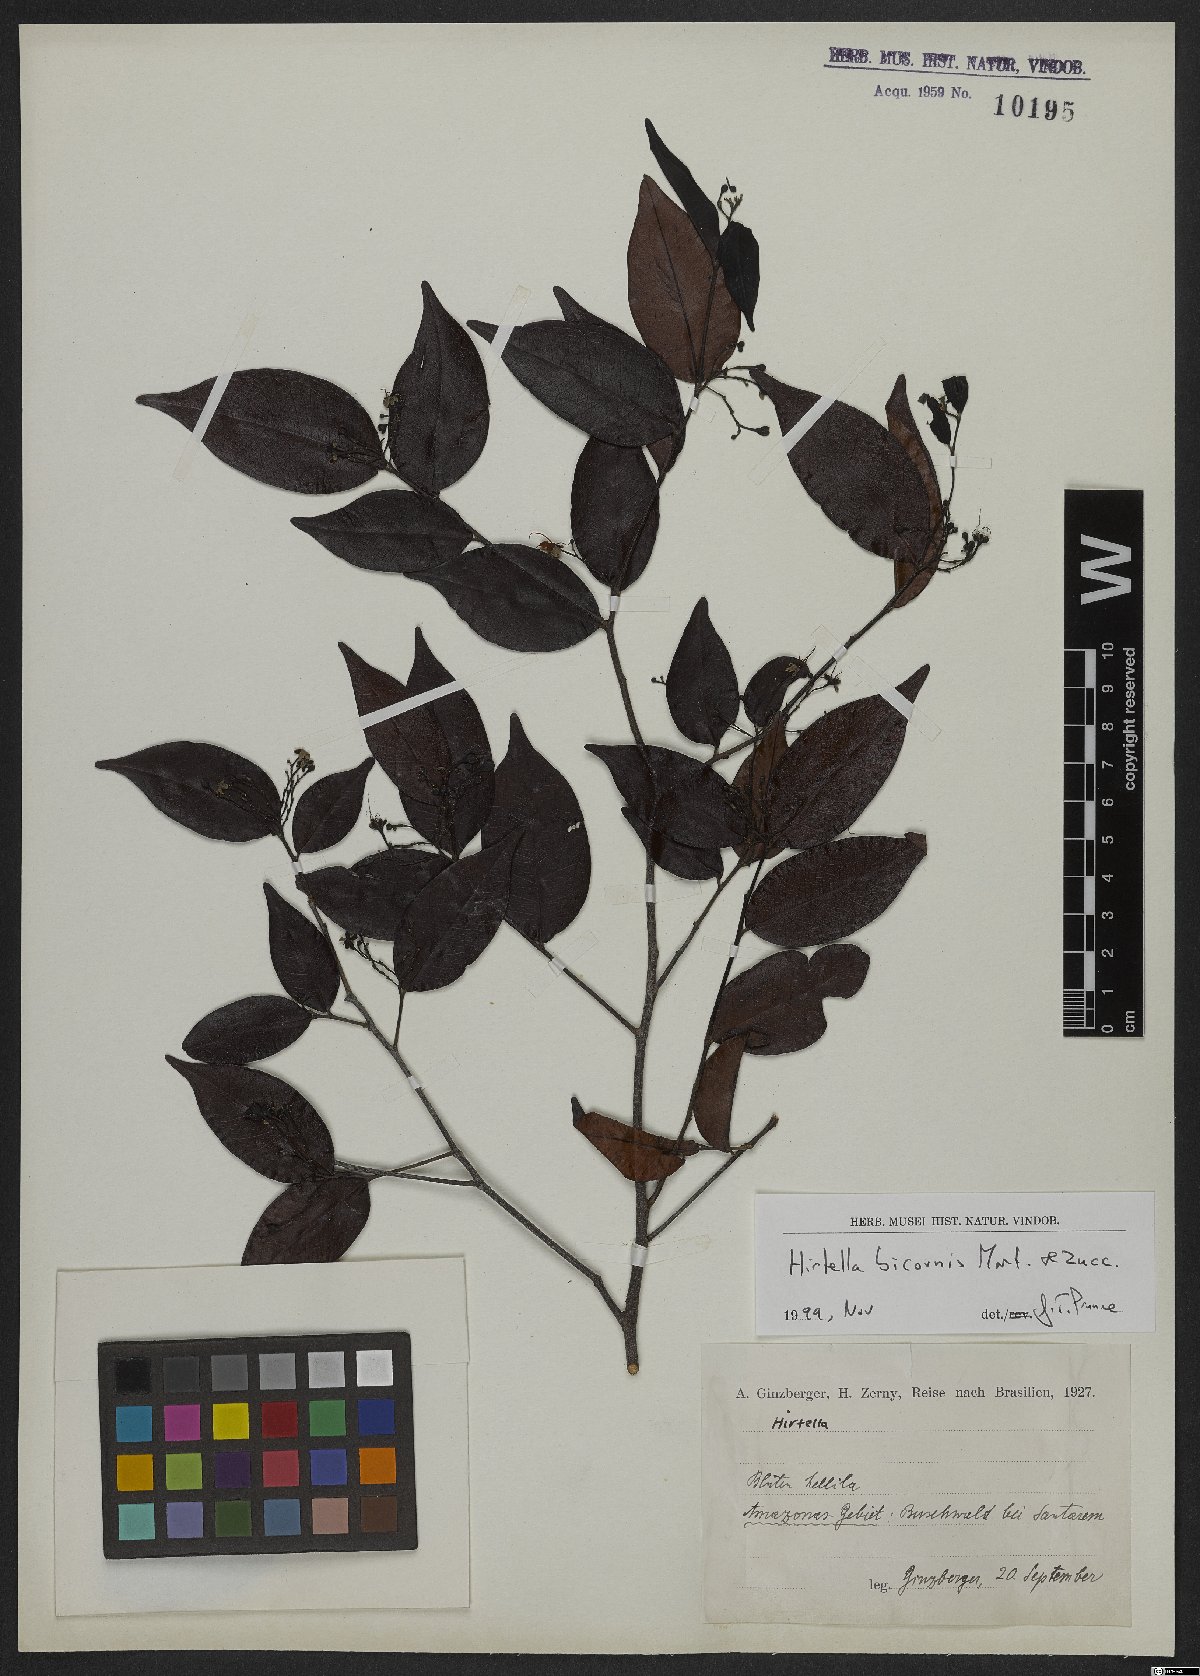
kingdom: Plantae
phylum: Tracheophyta
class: Magnoliopsida
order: Malpighiales
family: Chrysobalanaceae
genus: Hirtella
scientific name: Hirtella bicornis
